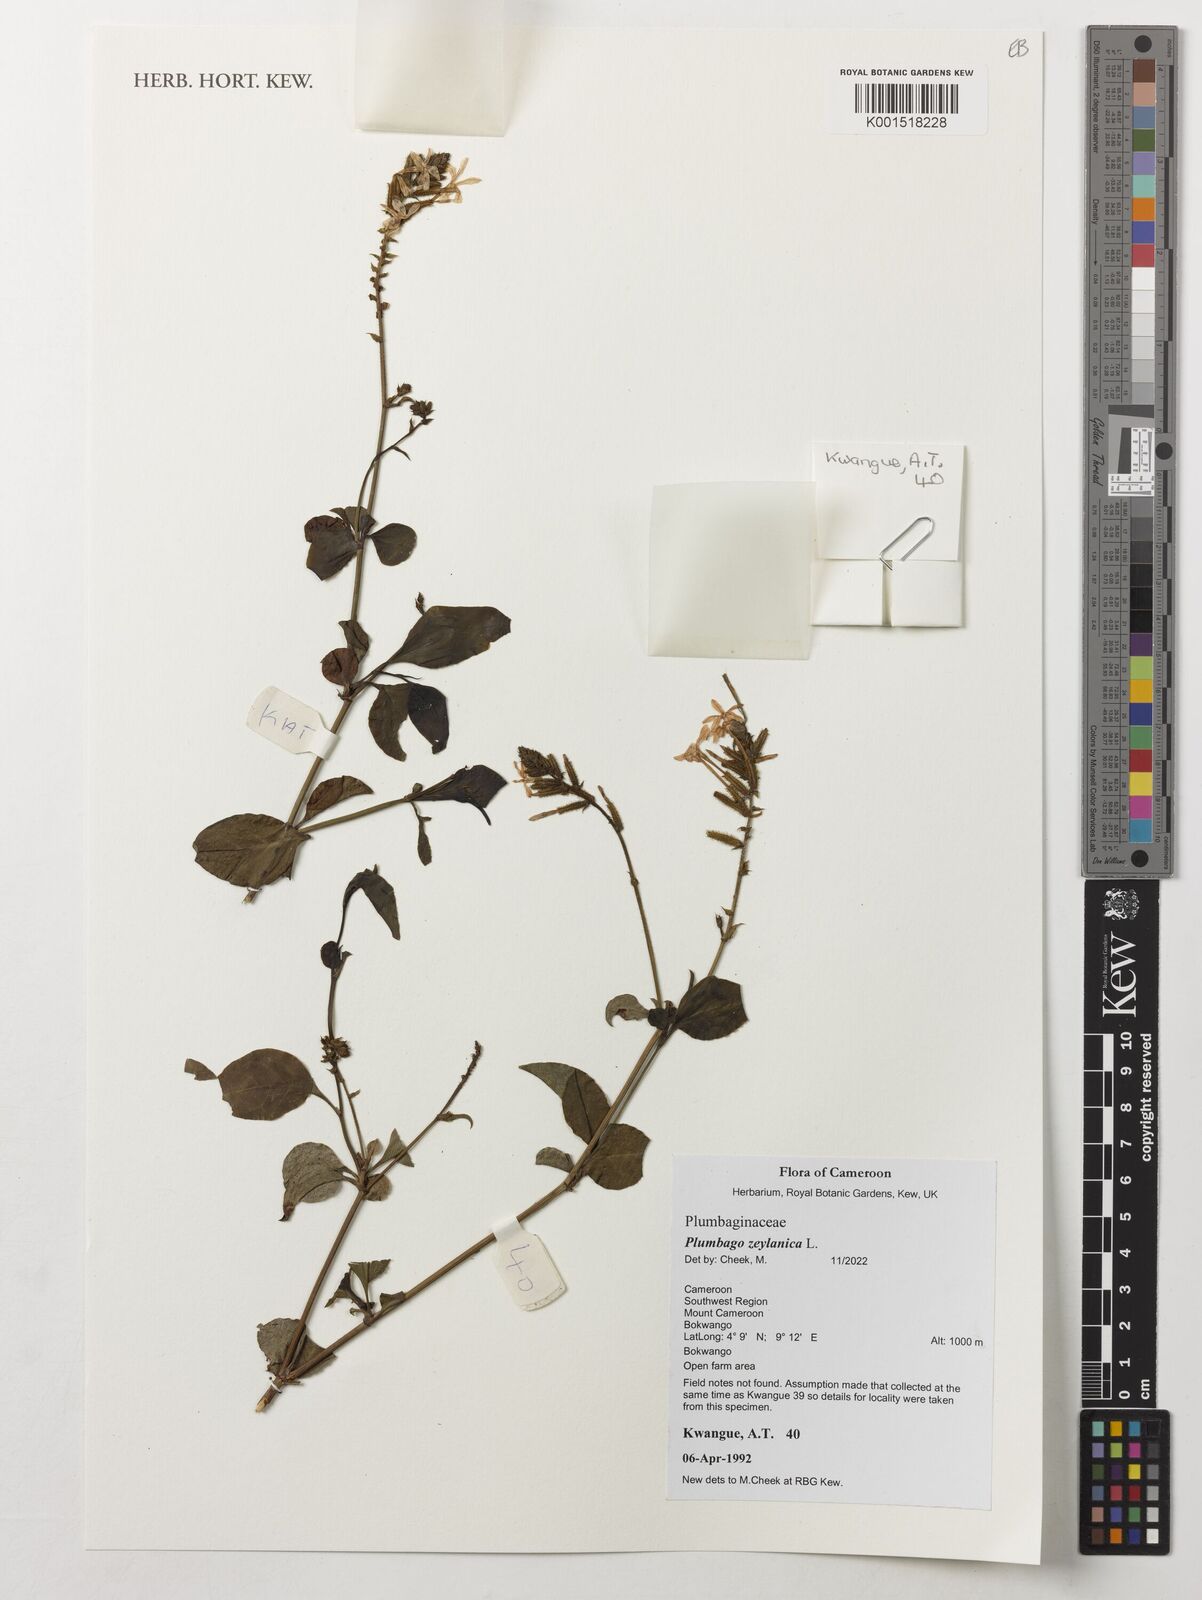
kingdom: Plantae
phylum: Tracheophyta
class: Magnoliopsida
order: Caryophyllales
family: Plumbaginaceae
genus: Plumbago
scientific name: Plumbago zeylanica
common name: Doctorbush
